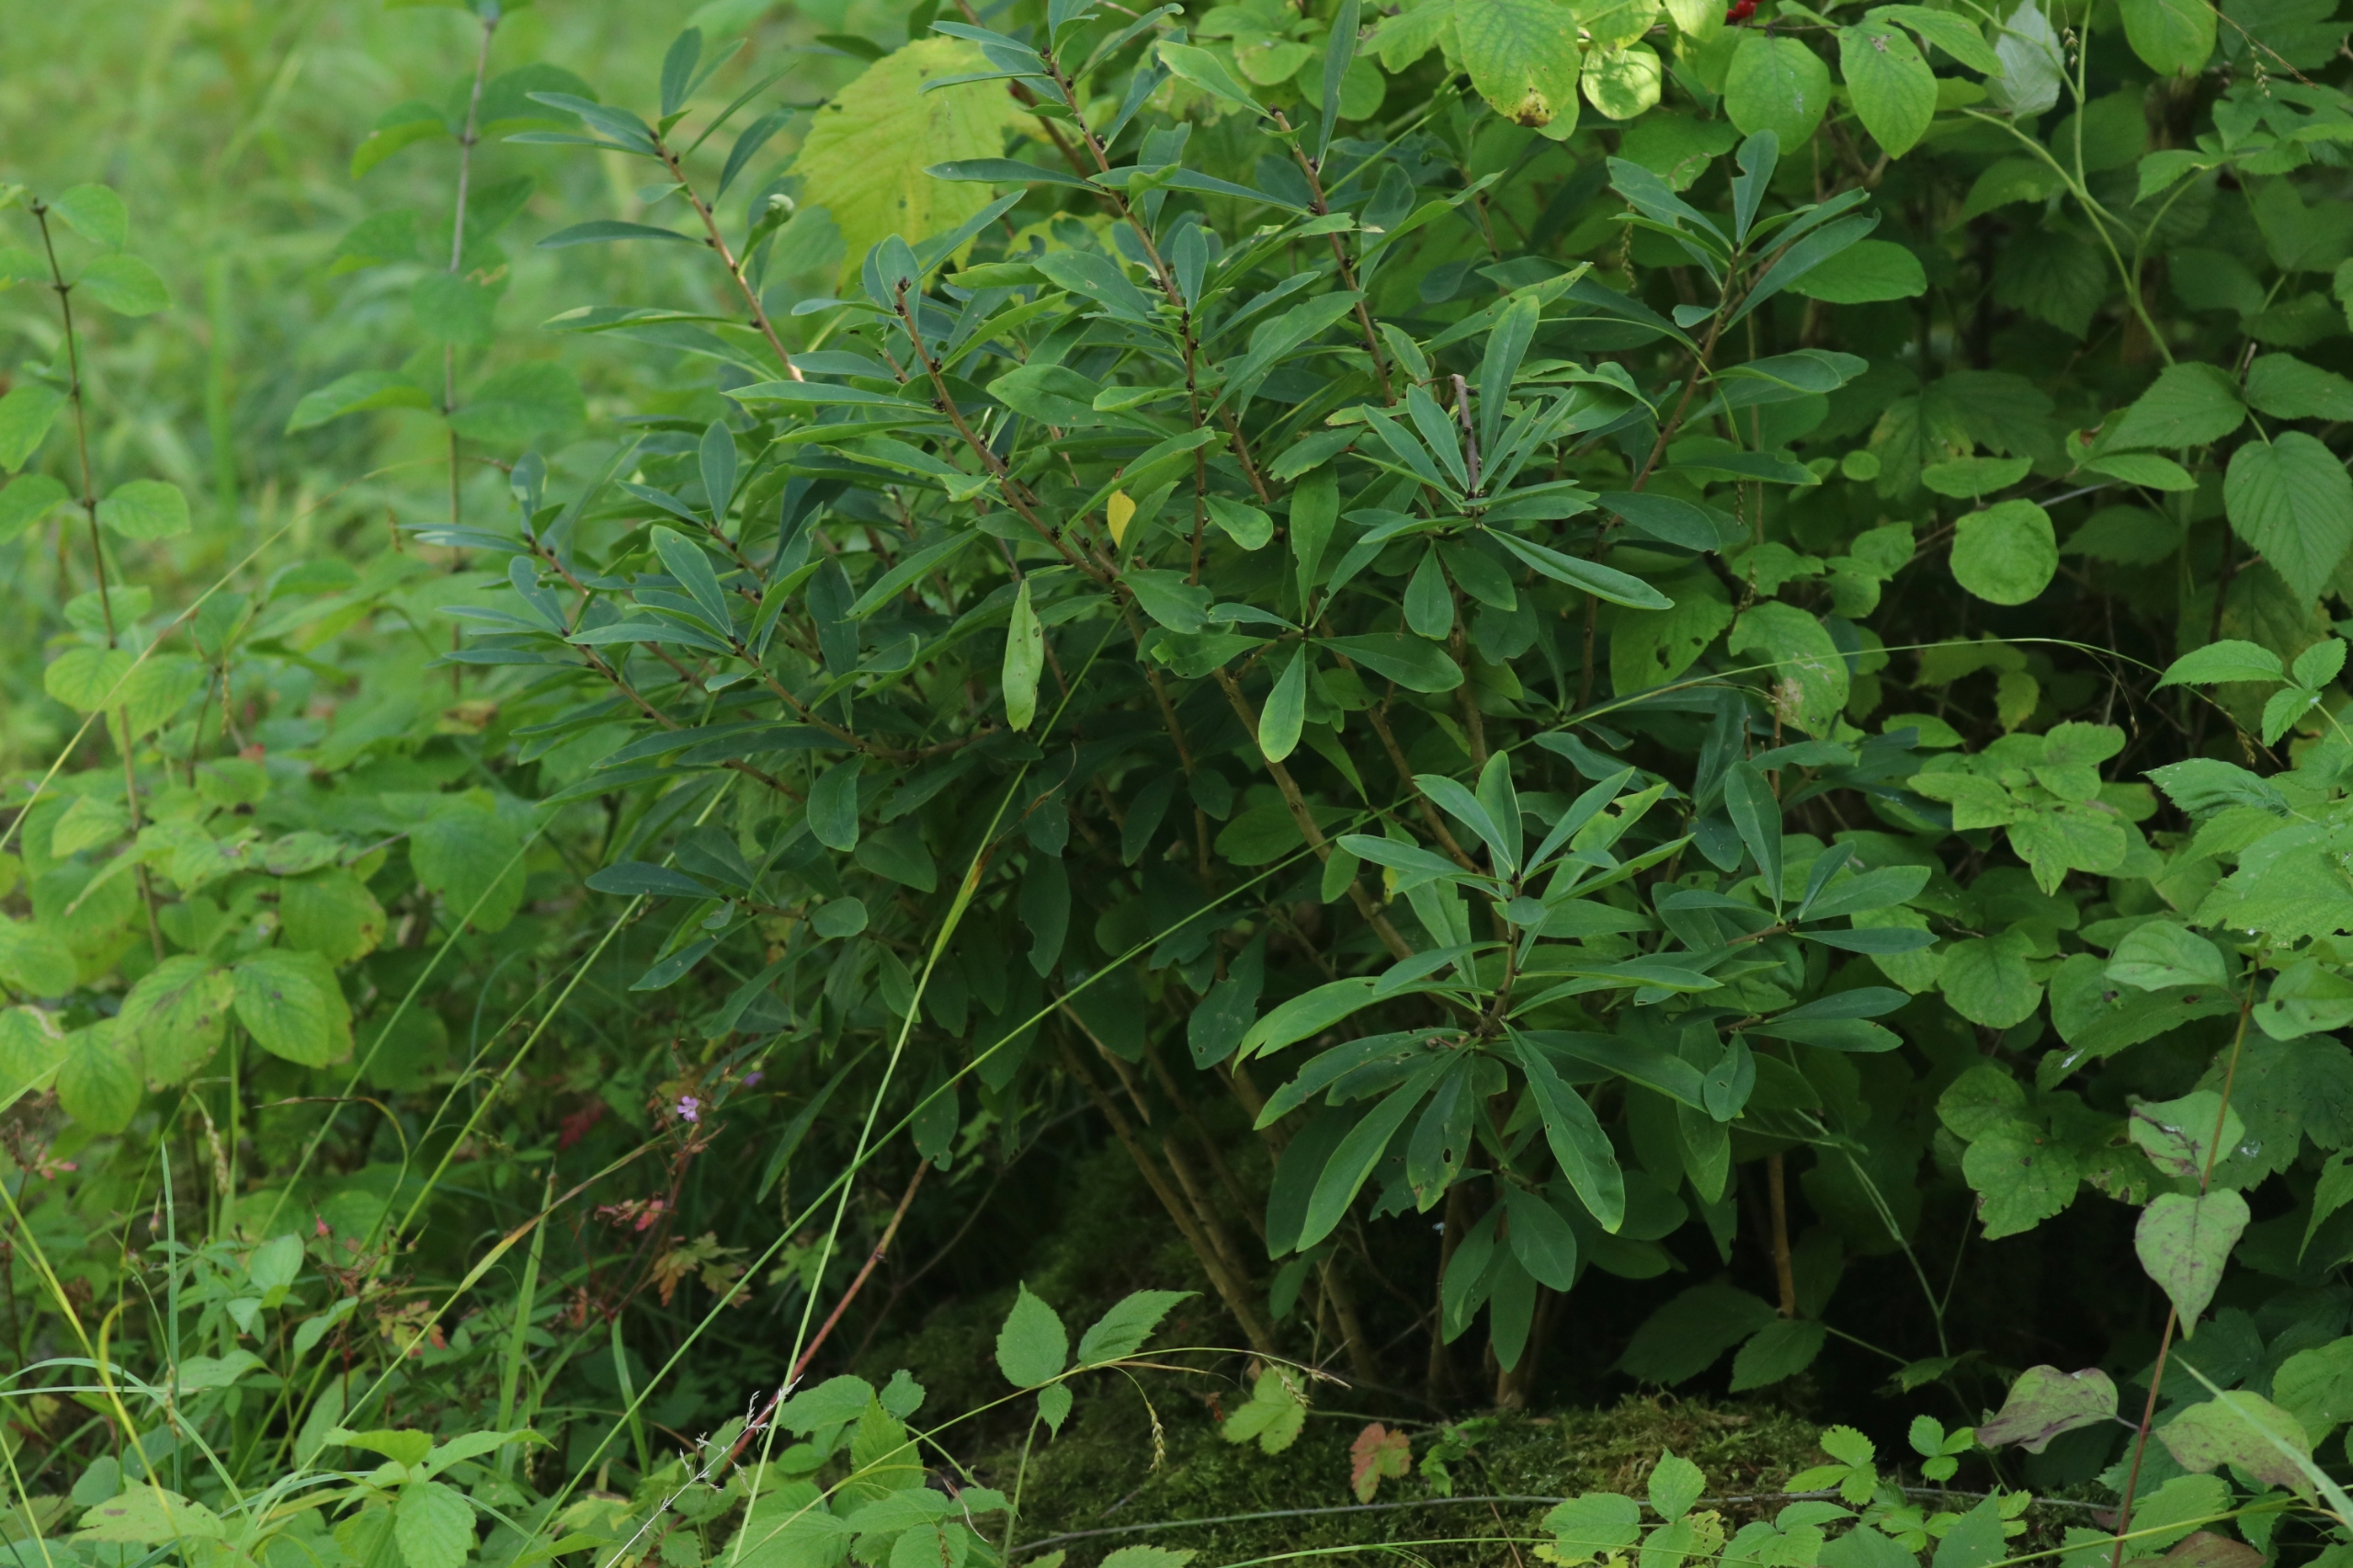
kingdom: Plantae
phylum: Tracheophyta
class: Magnoliopsida
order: Malvales
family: Thymelaeaceae
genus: Daphne
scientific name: Daphne mezereum
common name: Pebertræ
